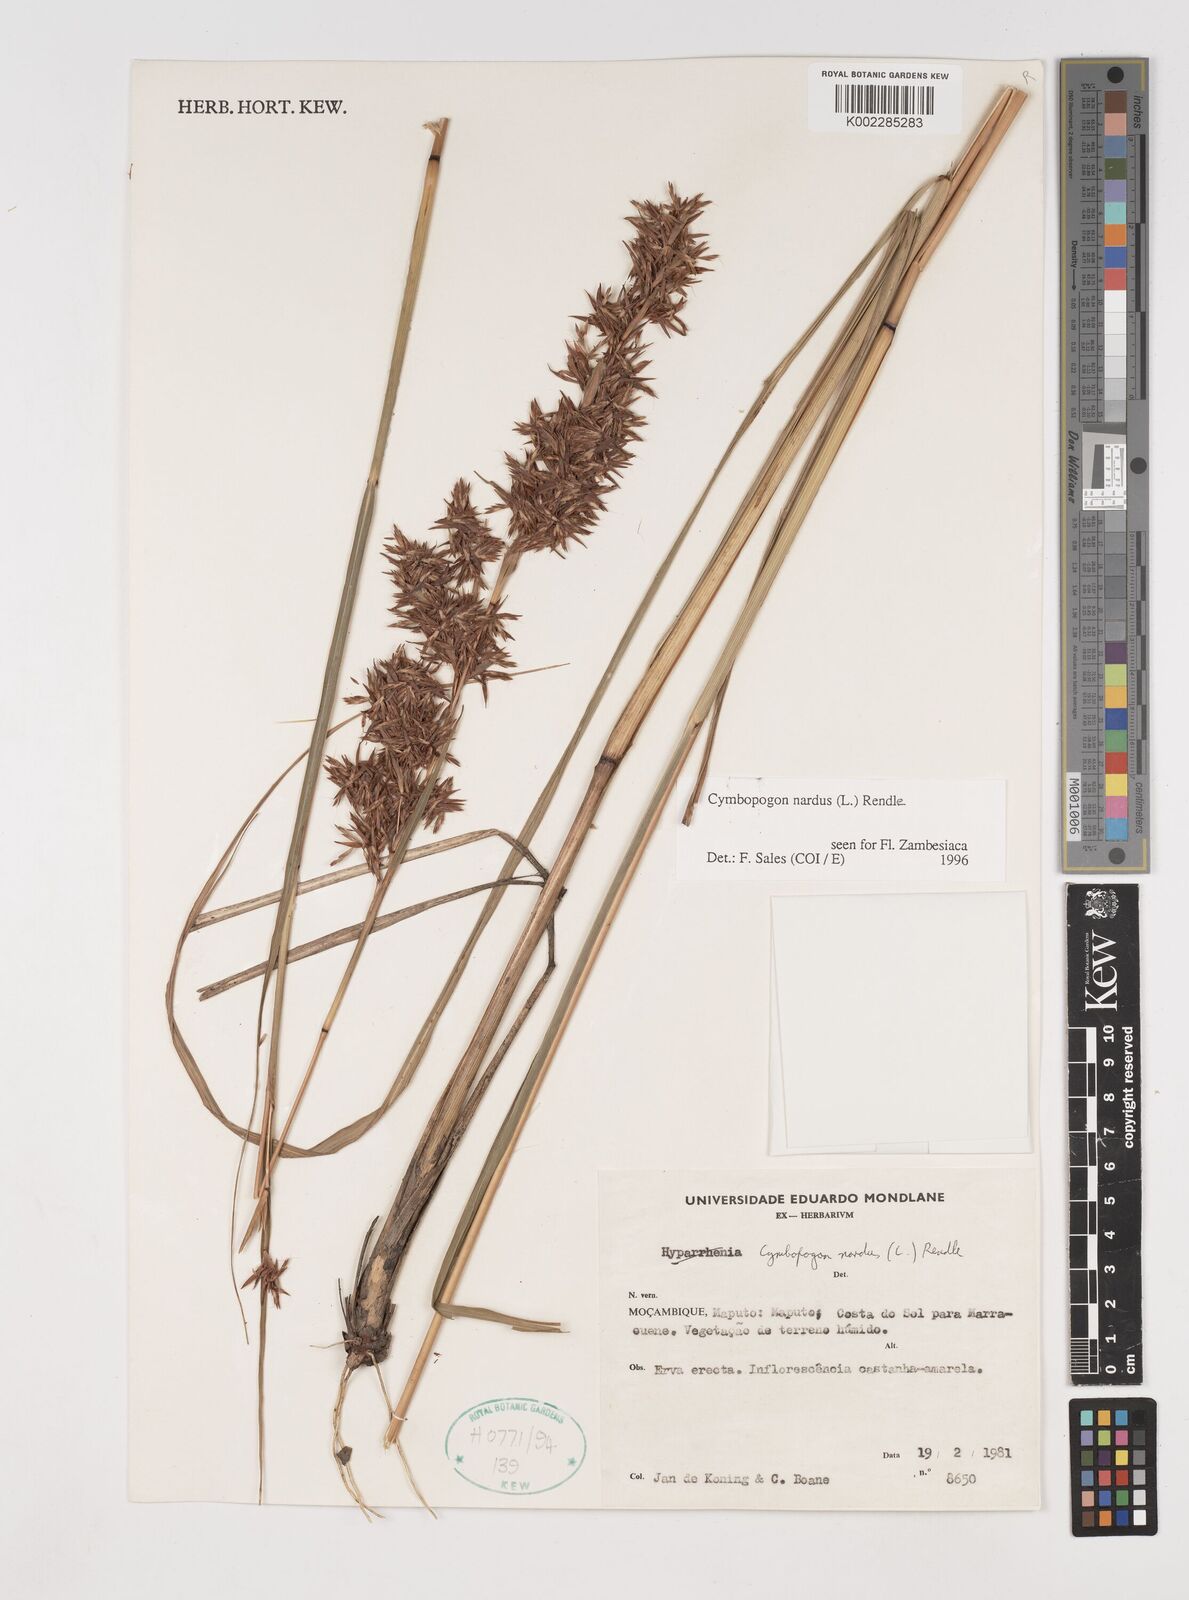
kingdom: Plantae
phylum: Tracheophyta
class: Liliopsida
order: Poales
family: Poaceae
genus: Cymbopogon
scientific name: Cymbopogon nardus
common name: Giant turpentine grass
